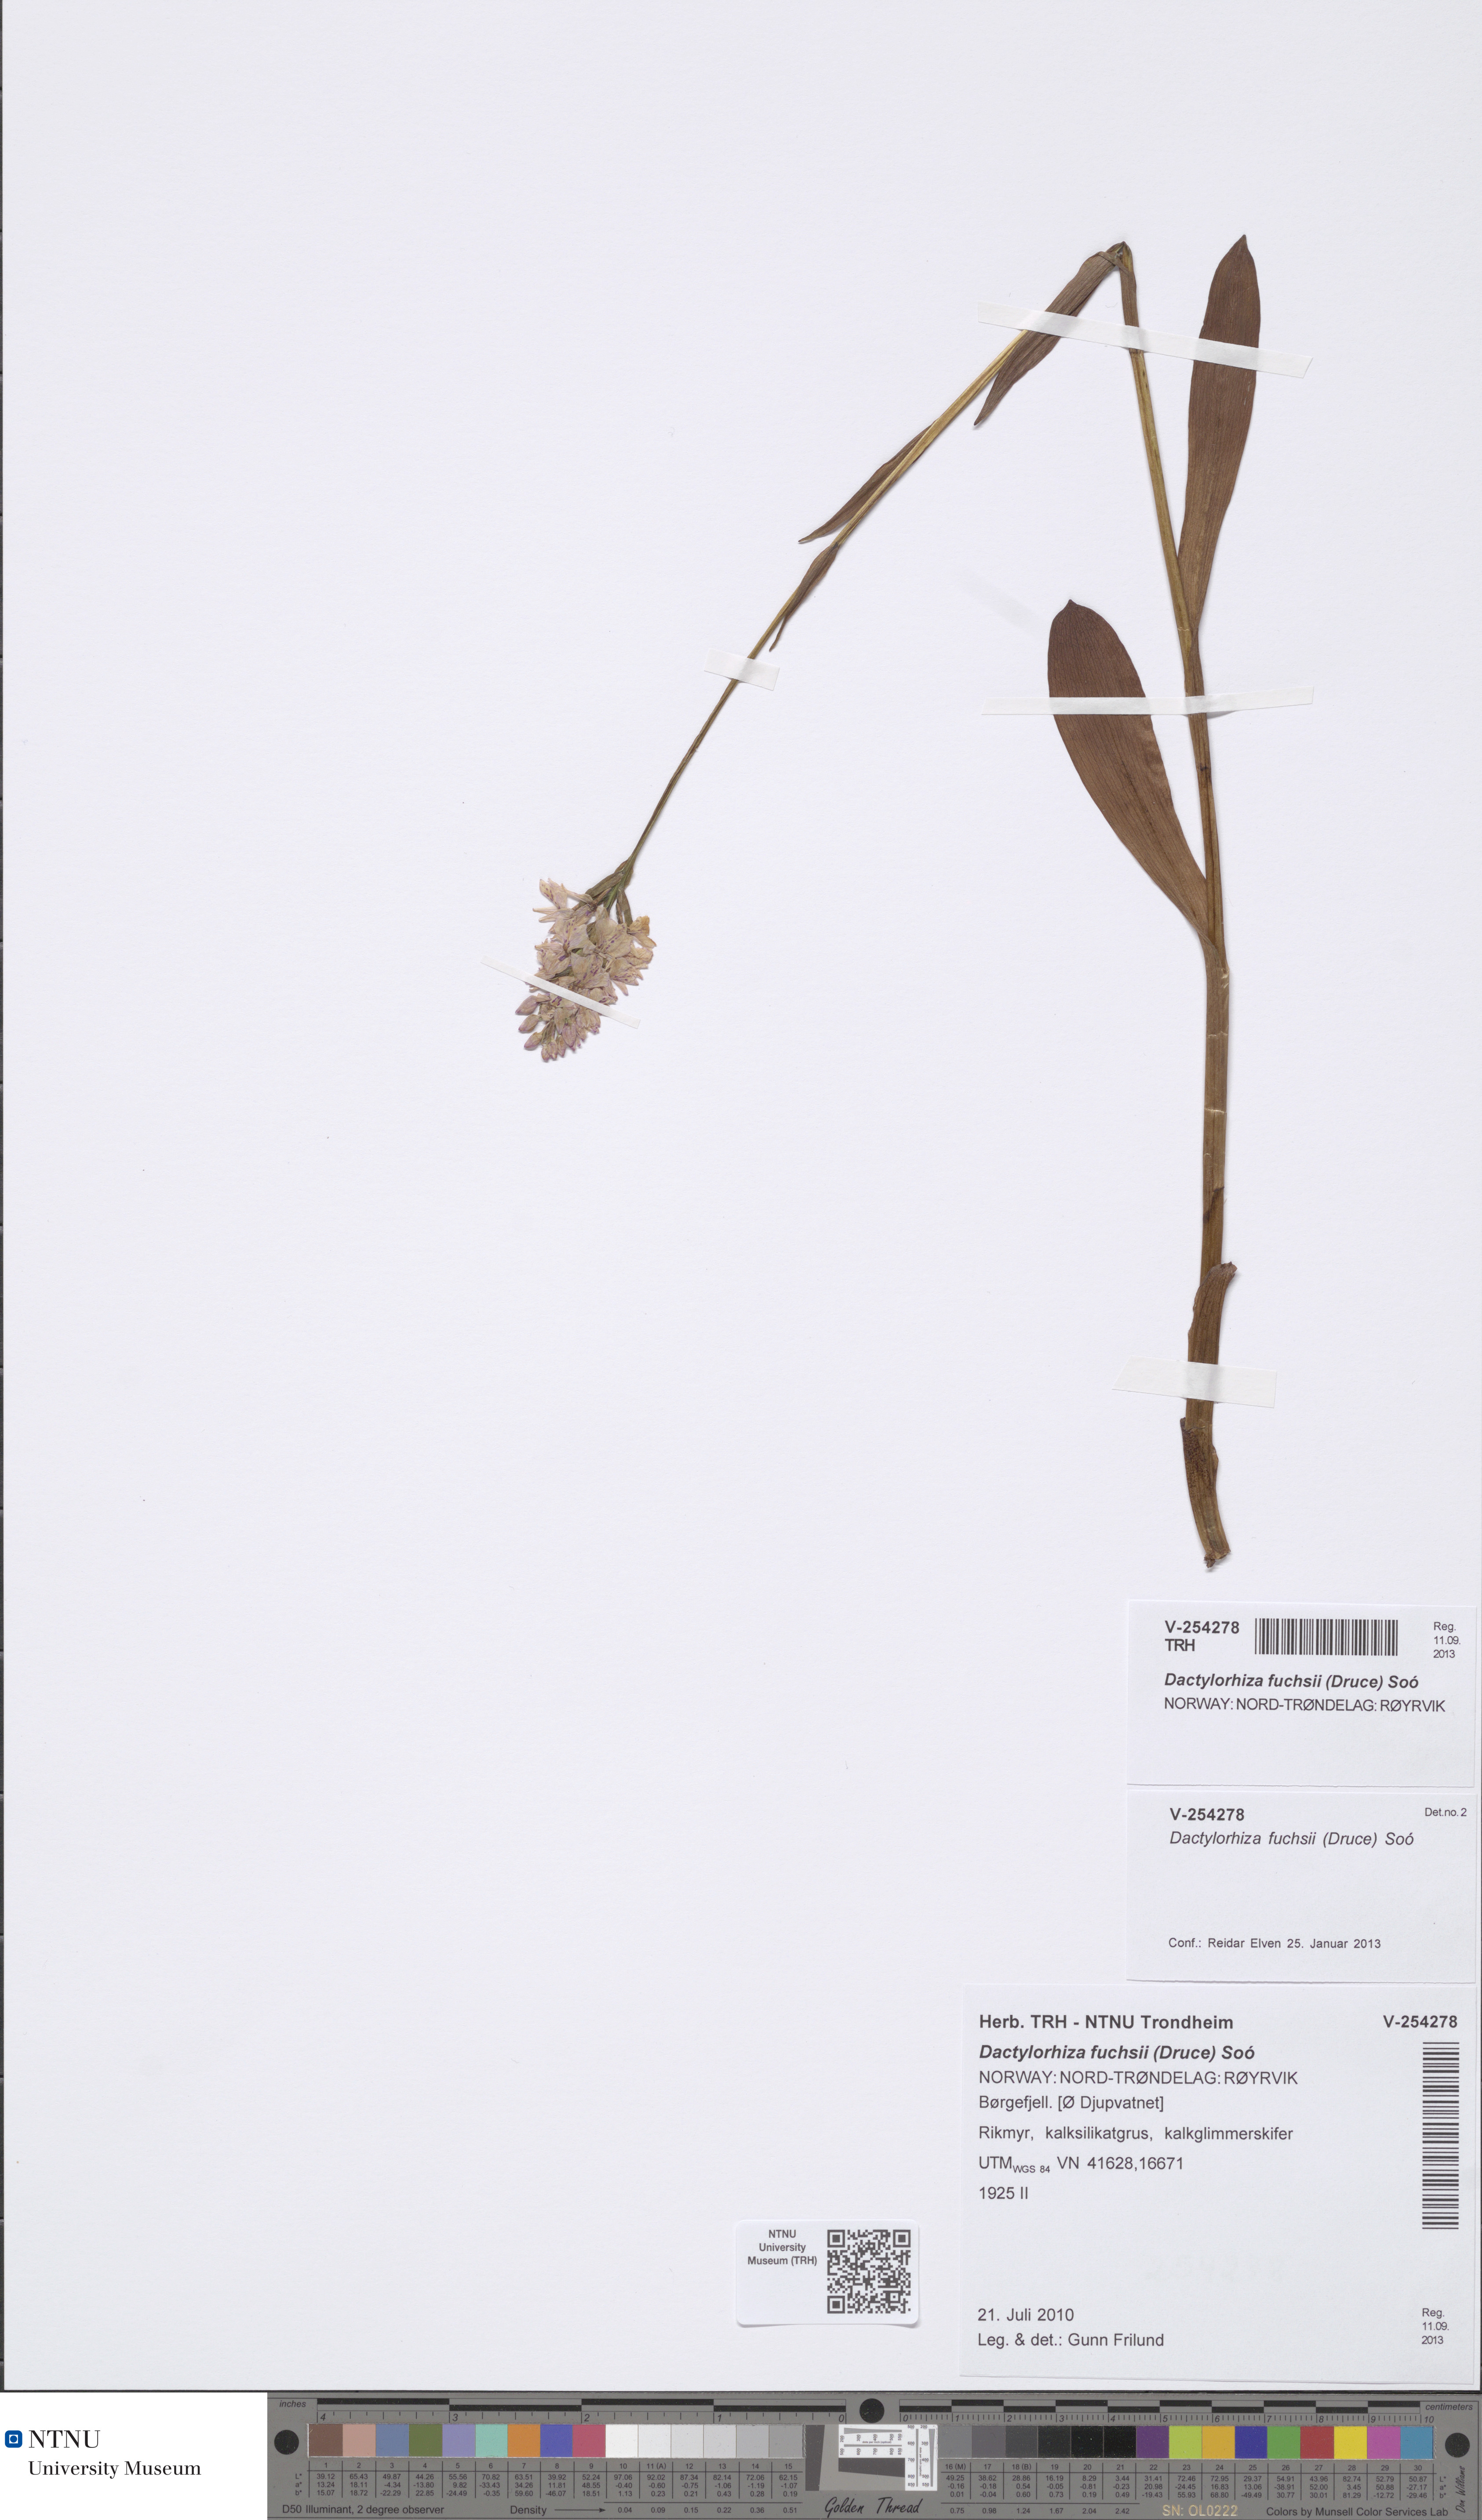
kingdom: Plantae
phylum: Tracheophyta
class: Liliopsida
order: Asparagales
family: Orchidaceae
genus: Dactylorhiza
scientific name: Dactylorhiza maculata
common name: Heath spotted-orchid
